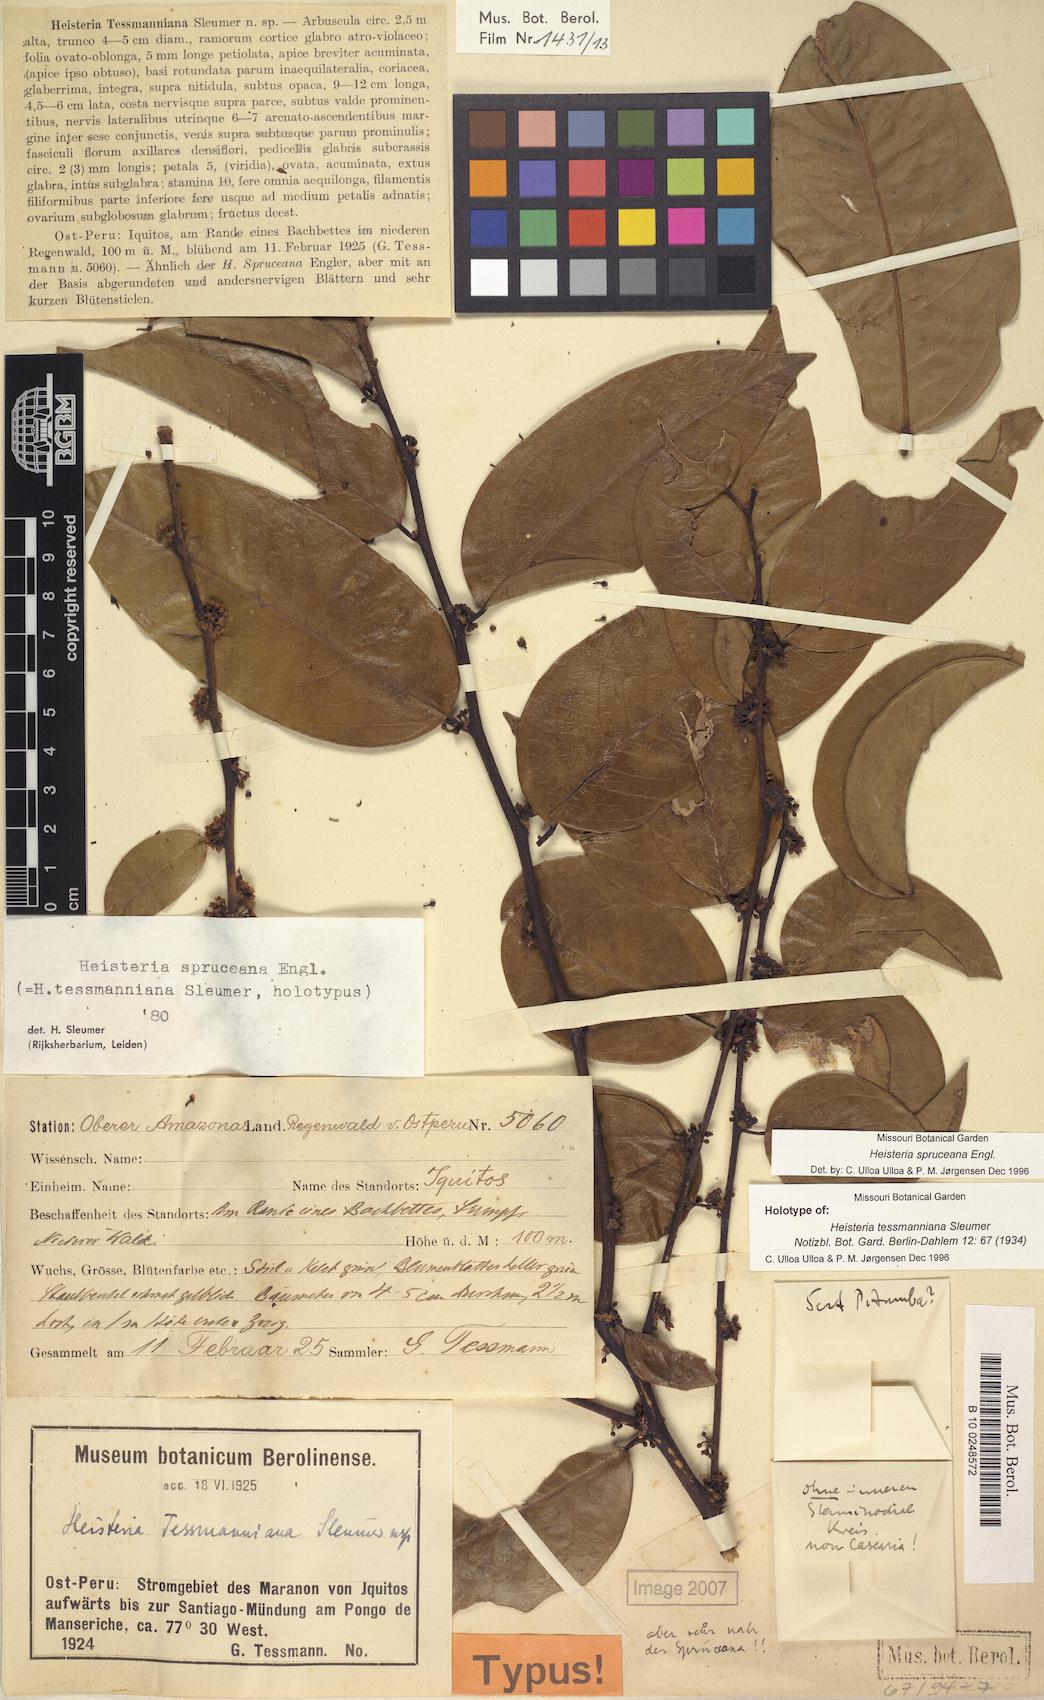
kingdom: Plantae
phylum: Tracheophyta
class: Magnoliopsida
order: Santalales
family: Erythropalaceae
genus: Heisteria
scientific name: Heisteria spruceana
